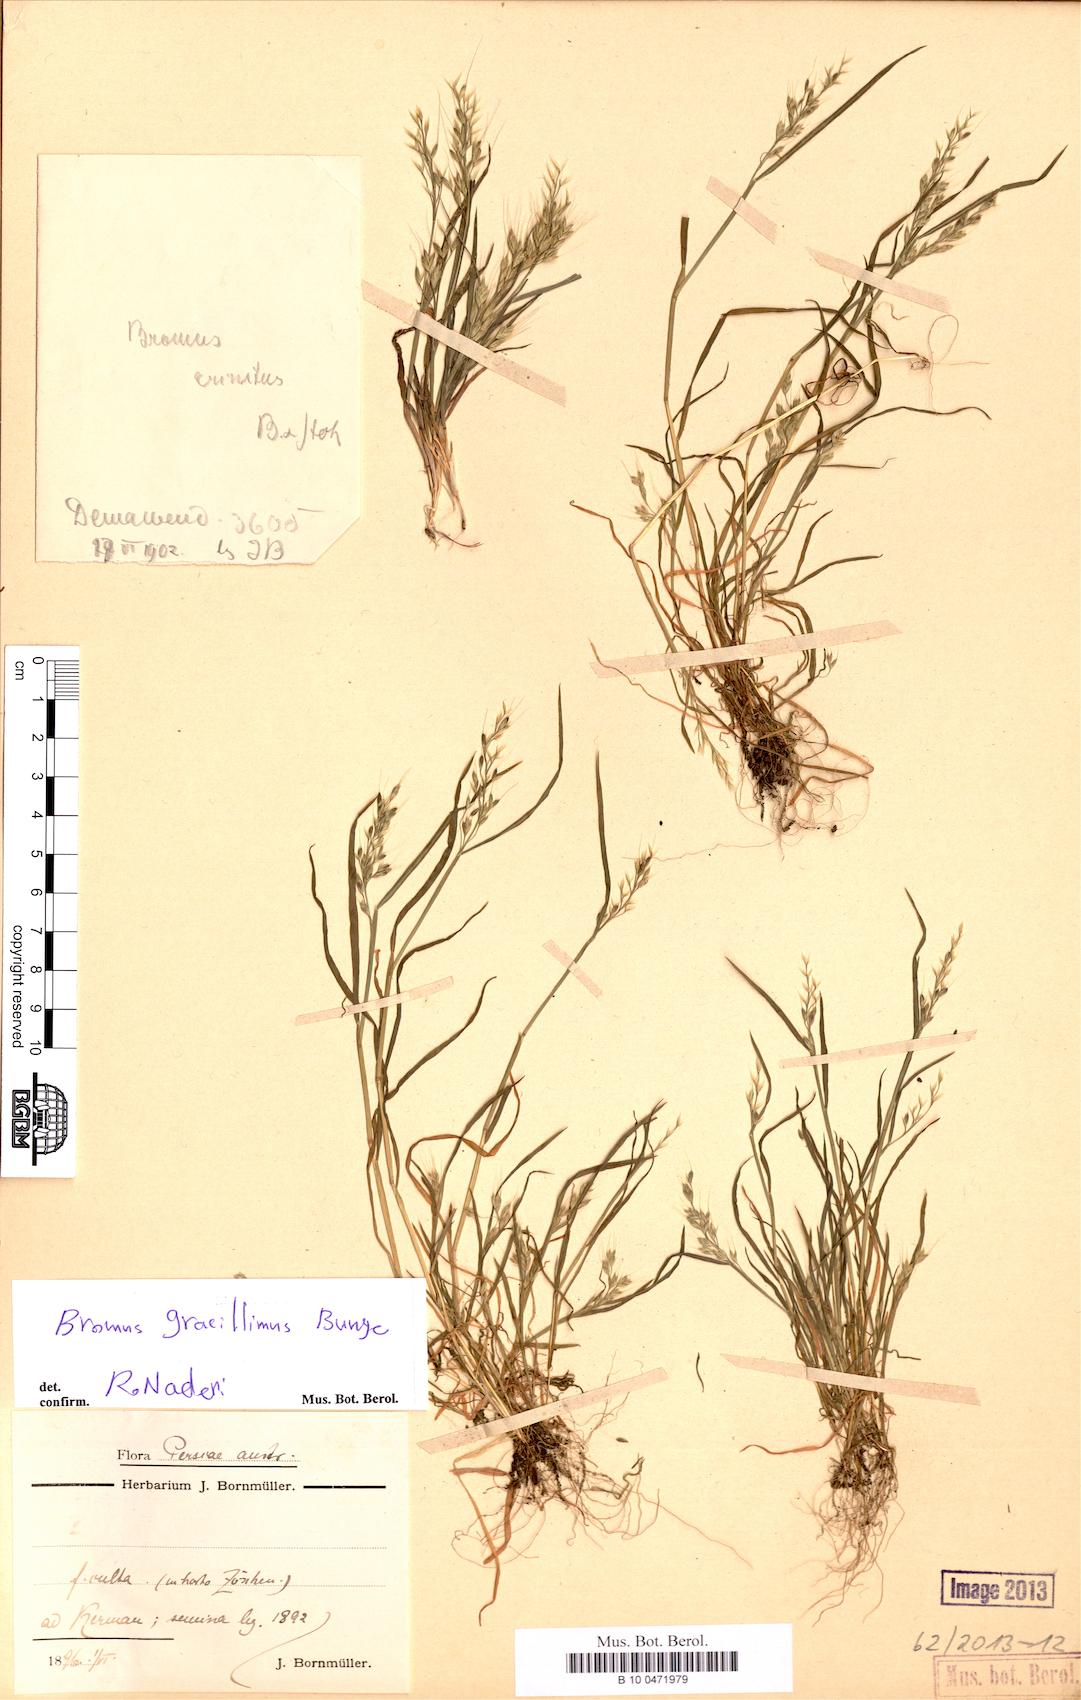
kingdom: Plantae
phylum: Tracheophyta
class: Liliopsida
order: Poales
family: Poaceae
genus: Bromus
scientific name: Bromus gracillimus
